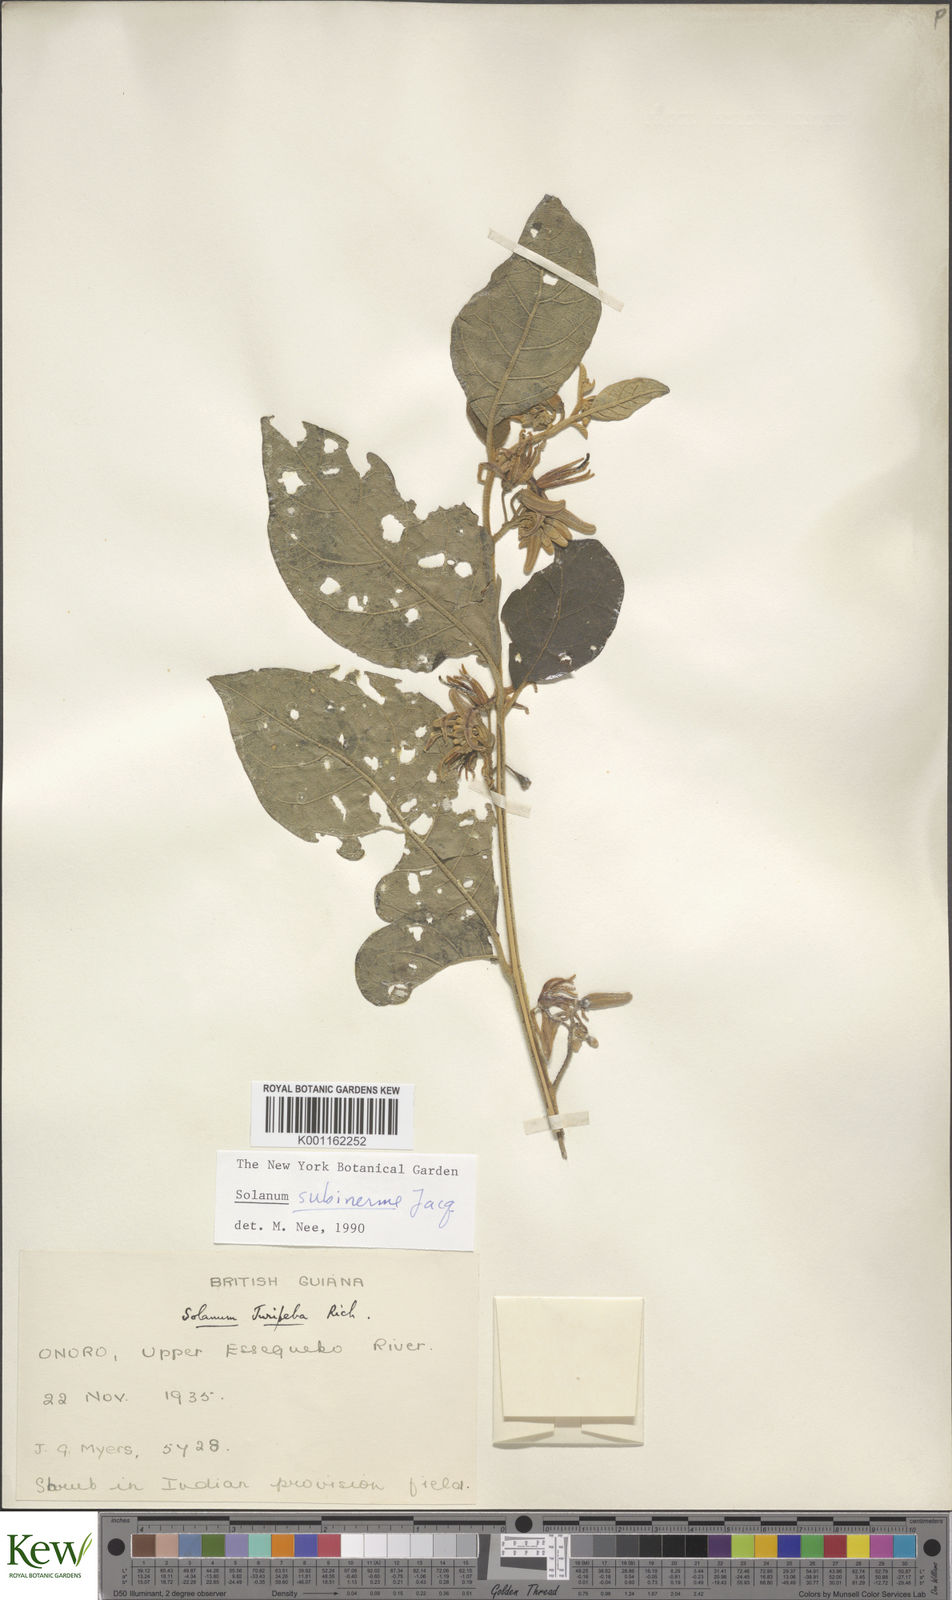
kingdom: Plantae
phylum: Tracheophyta
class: Magnoliopsida
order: Solanales
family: Solanaceae
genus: Solanum
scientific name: Solanum subinerme
